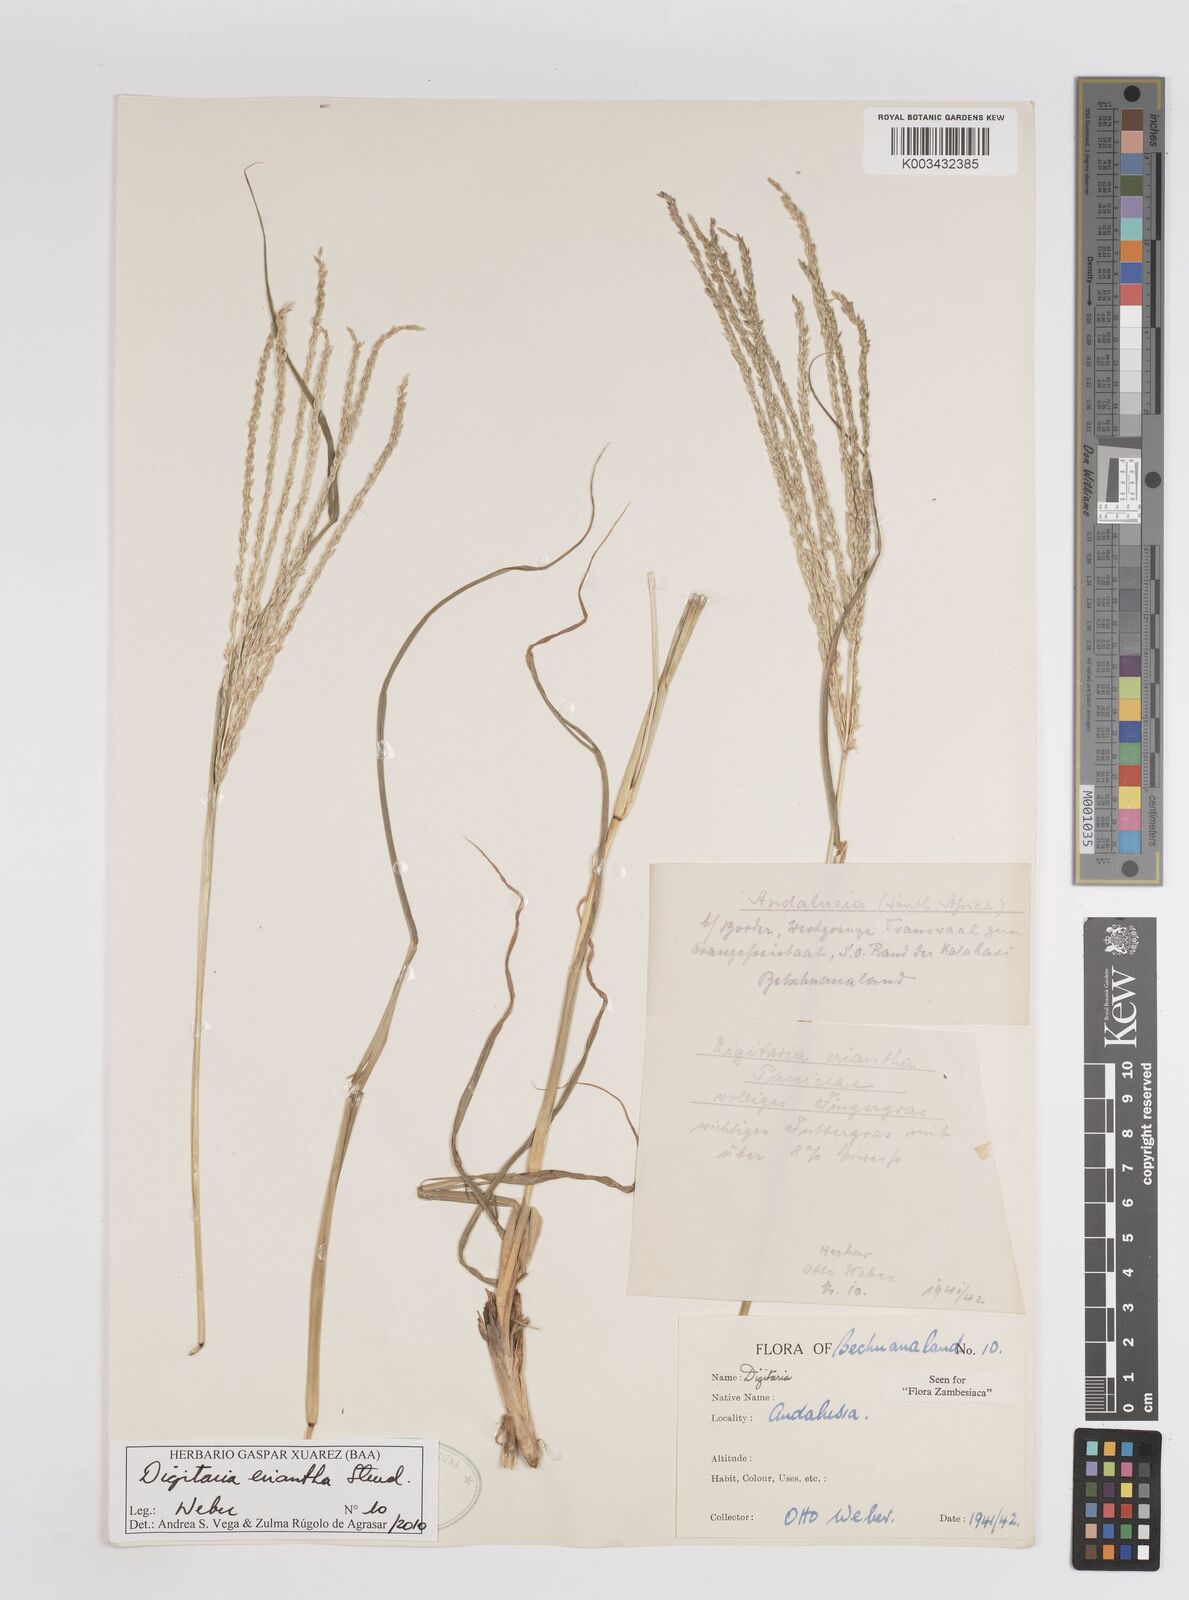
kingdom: Plantae
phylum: Tracheophyta
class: Liliopsida
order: Poales
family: Poaceae
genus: Digitaria
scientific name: Digitaria eriantha
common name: Digitgrass
